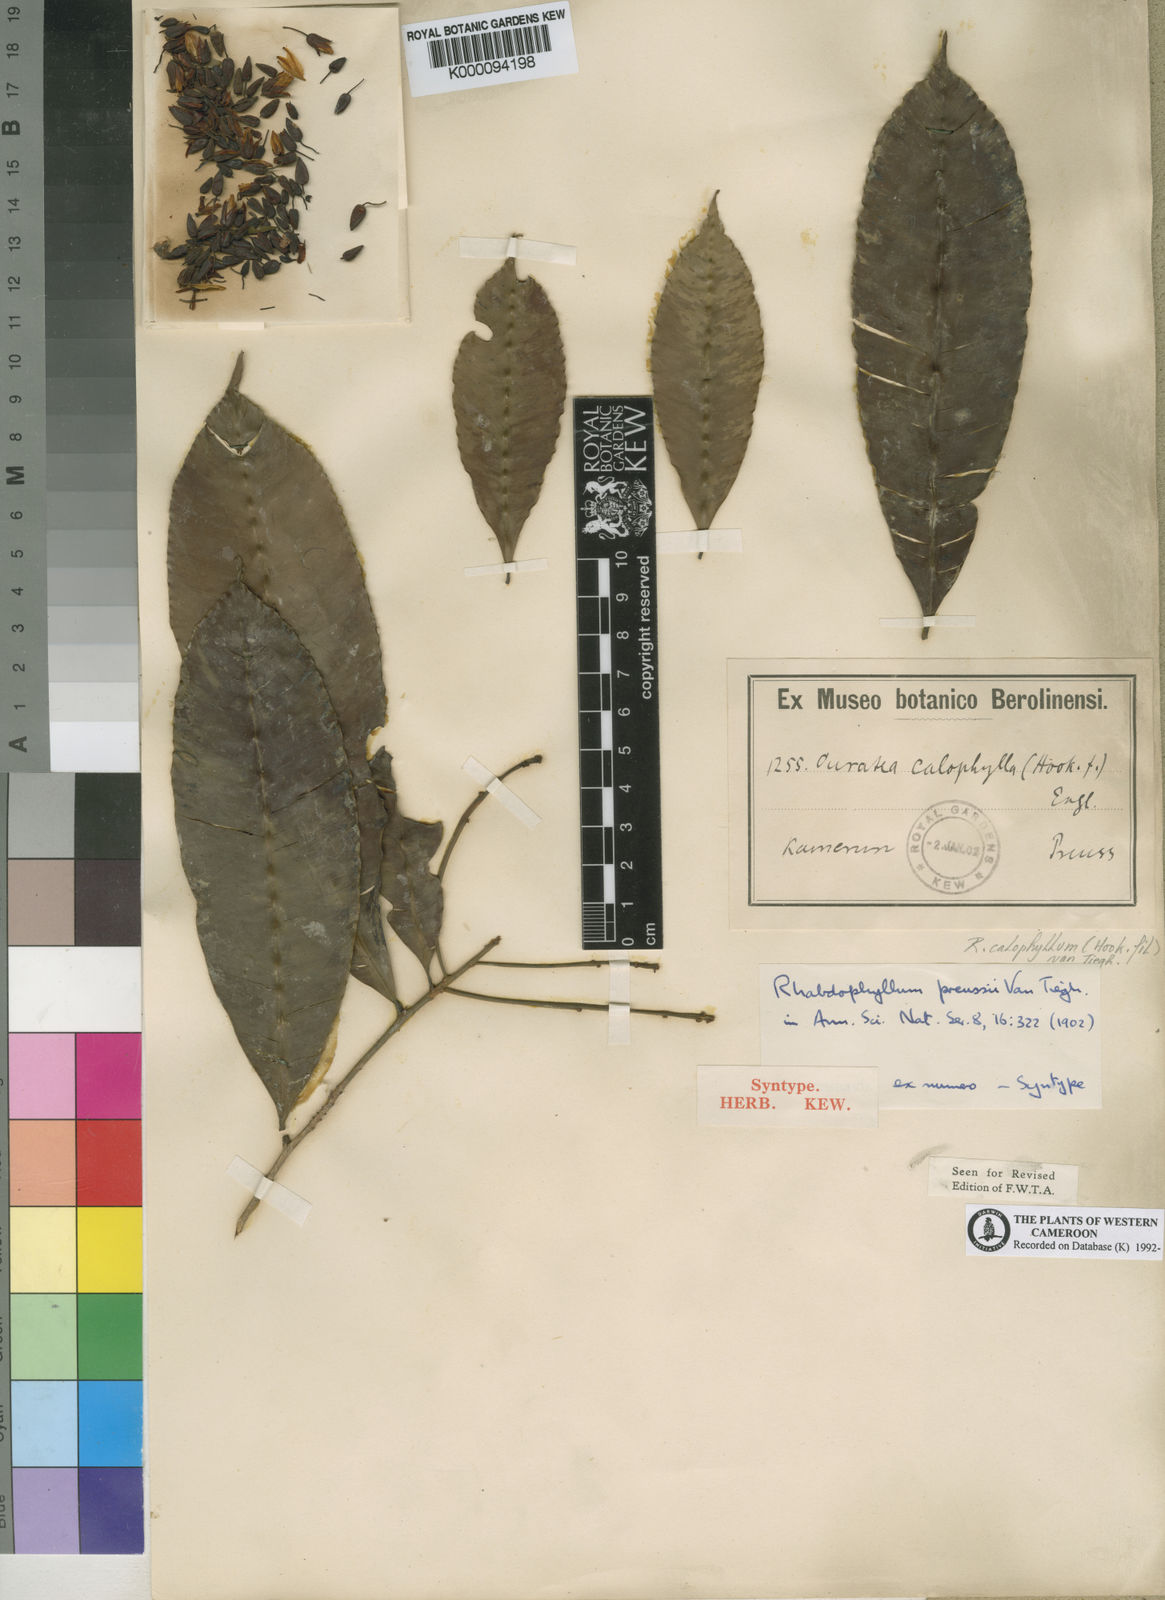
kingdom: Plantae
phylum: Tracheophyta
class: Magnoliopsida
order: Malpighiales
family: Ochnaceae
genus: Rhabdophyllum
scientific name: Rhabdophyllum calophyllum
